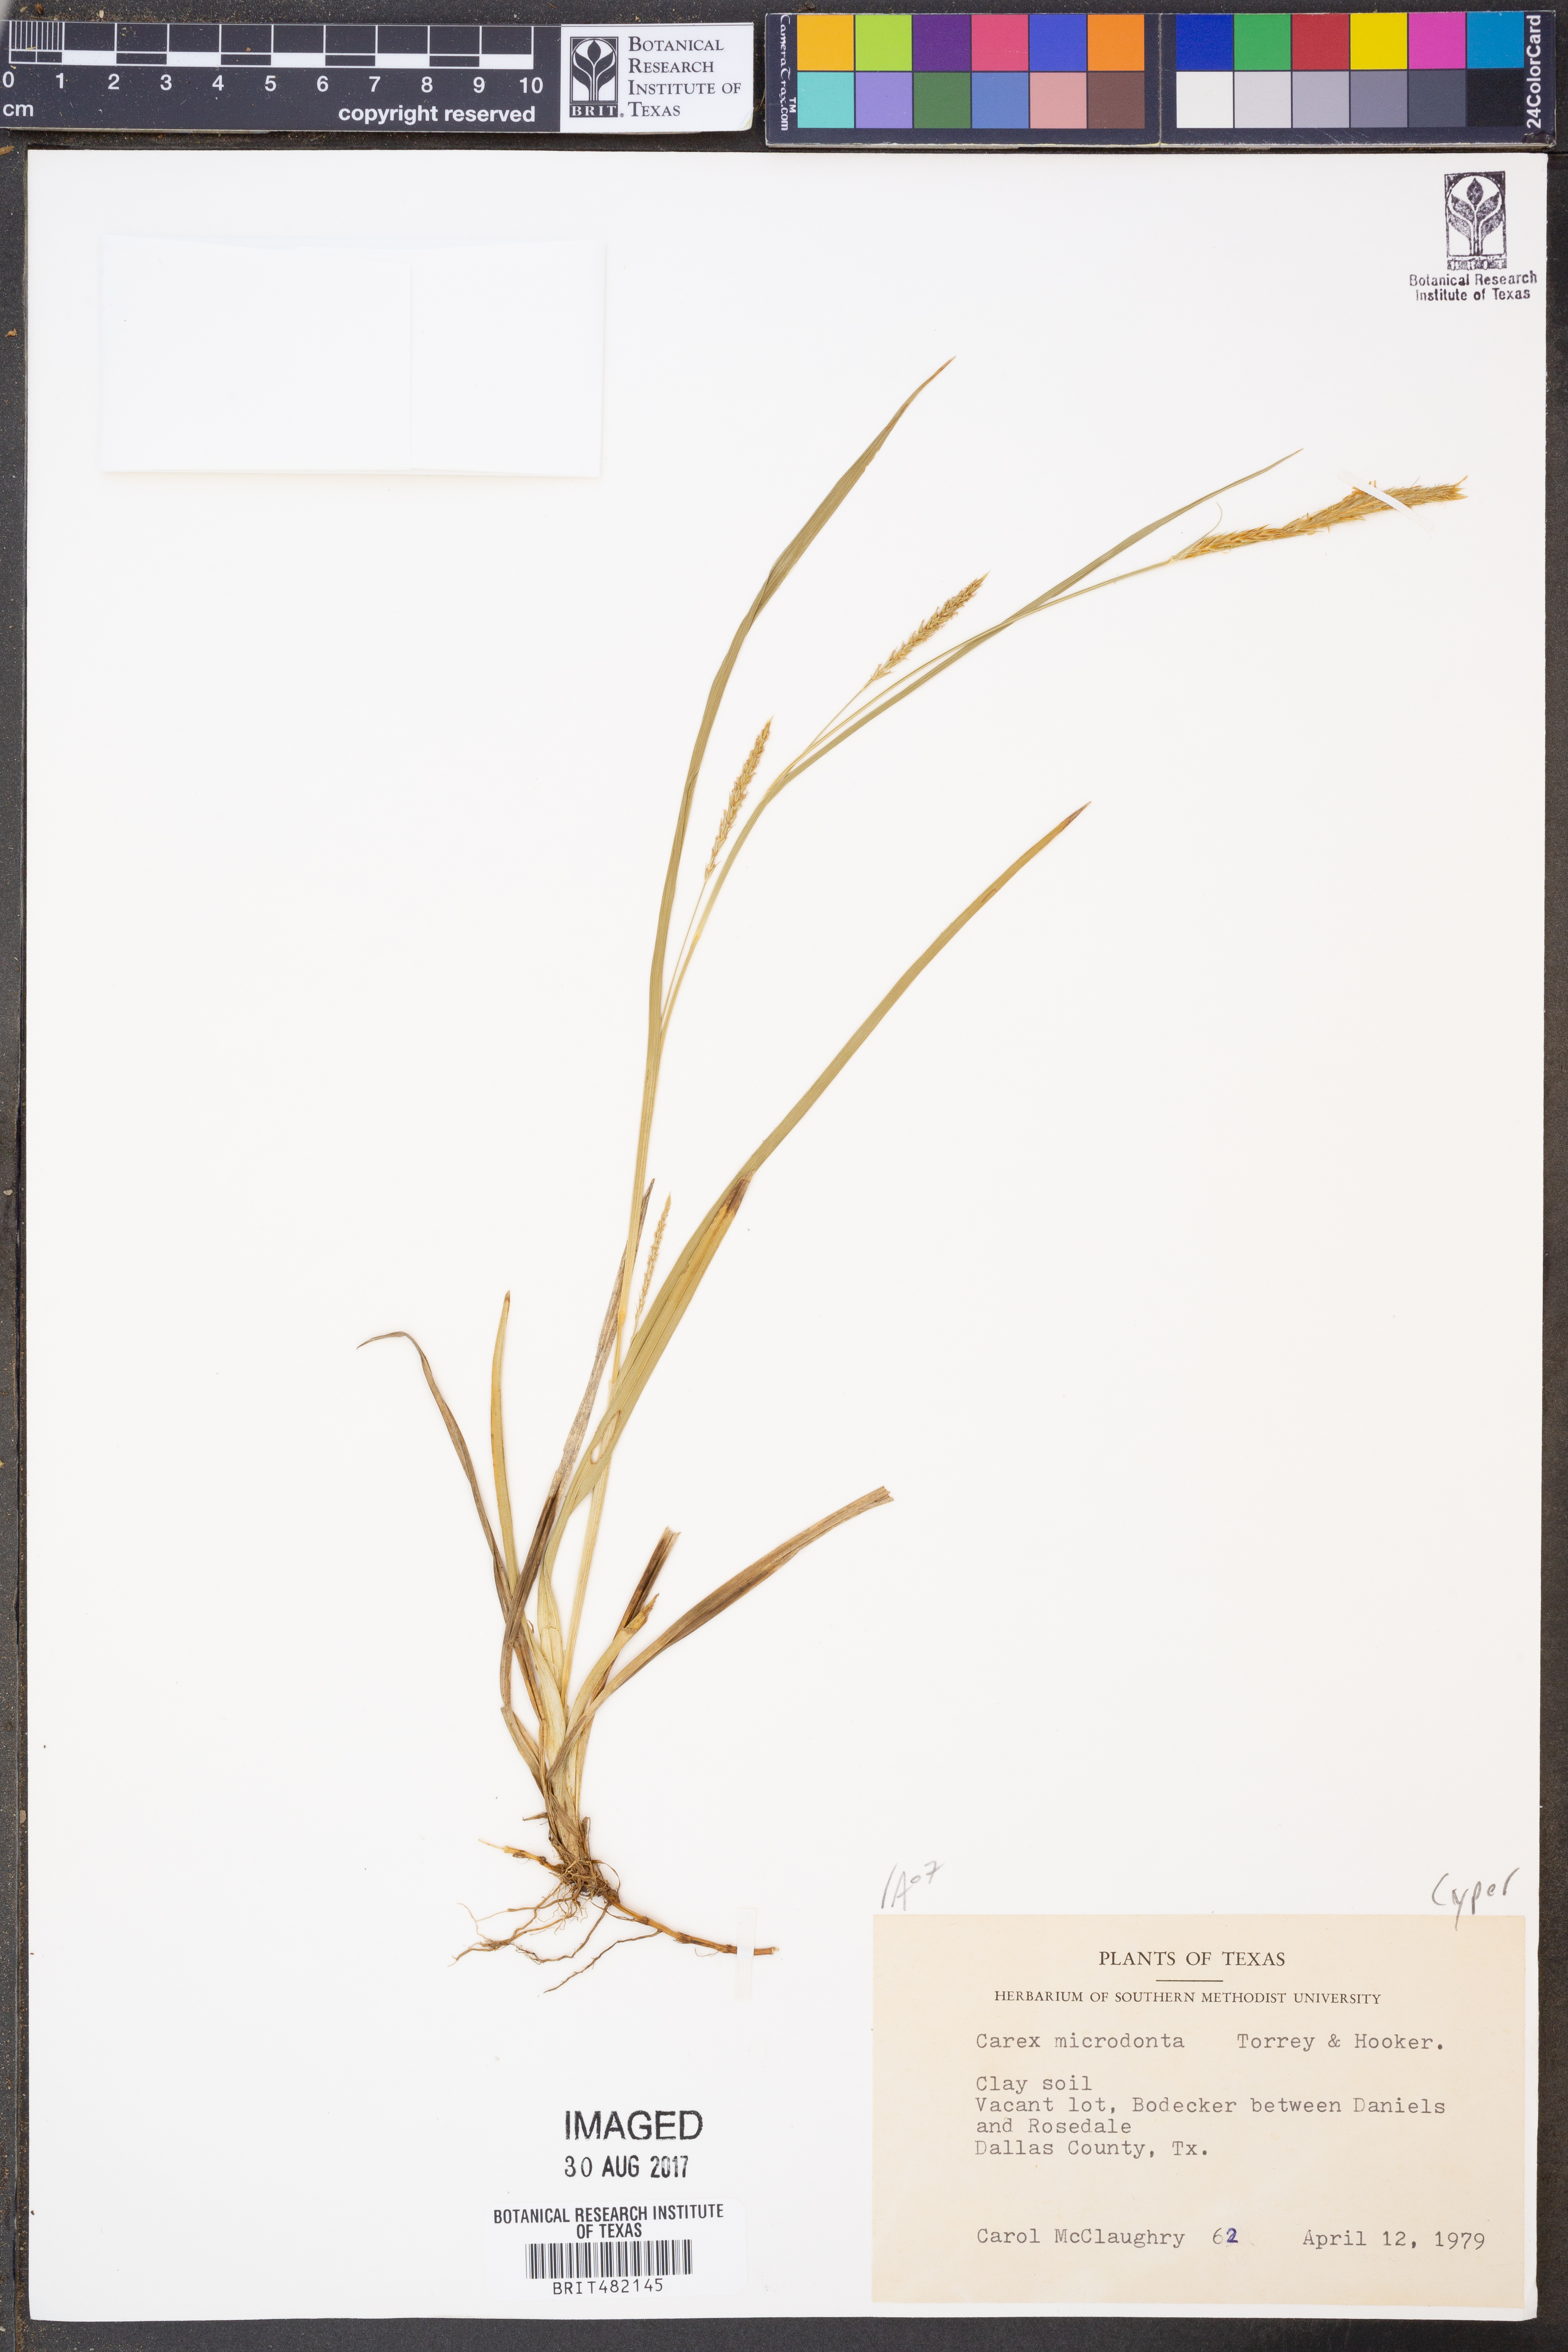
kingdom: Plantae
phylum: Tracheophyta
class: Liliopsida
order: Poales
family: Cyperaceae
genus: Carex
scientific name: Carex microdonta
